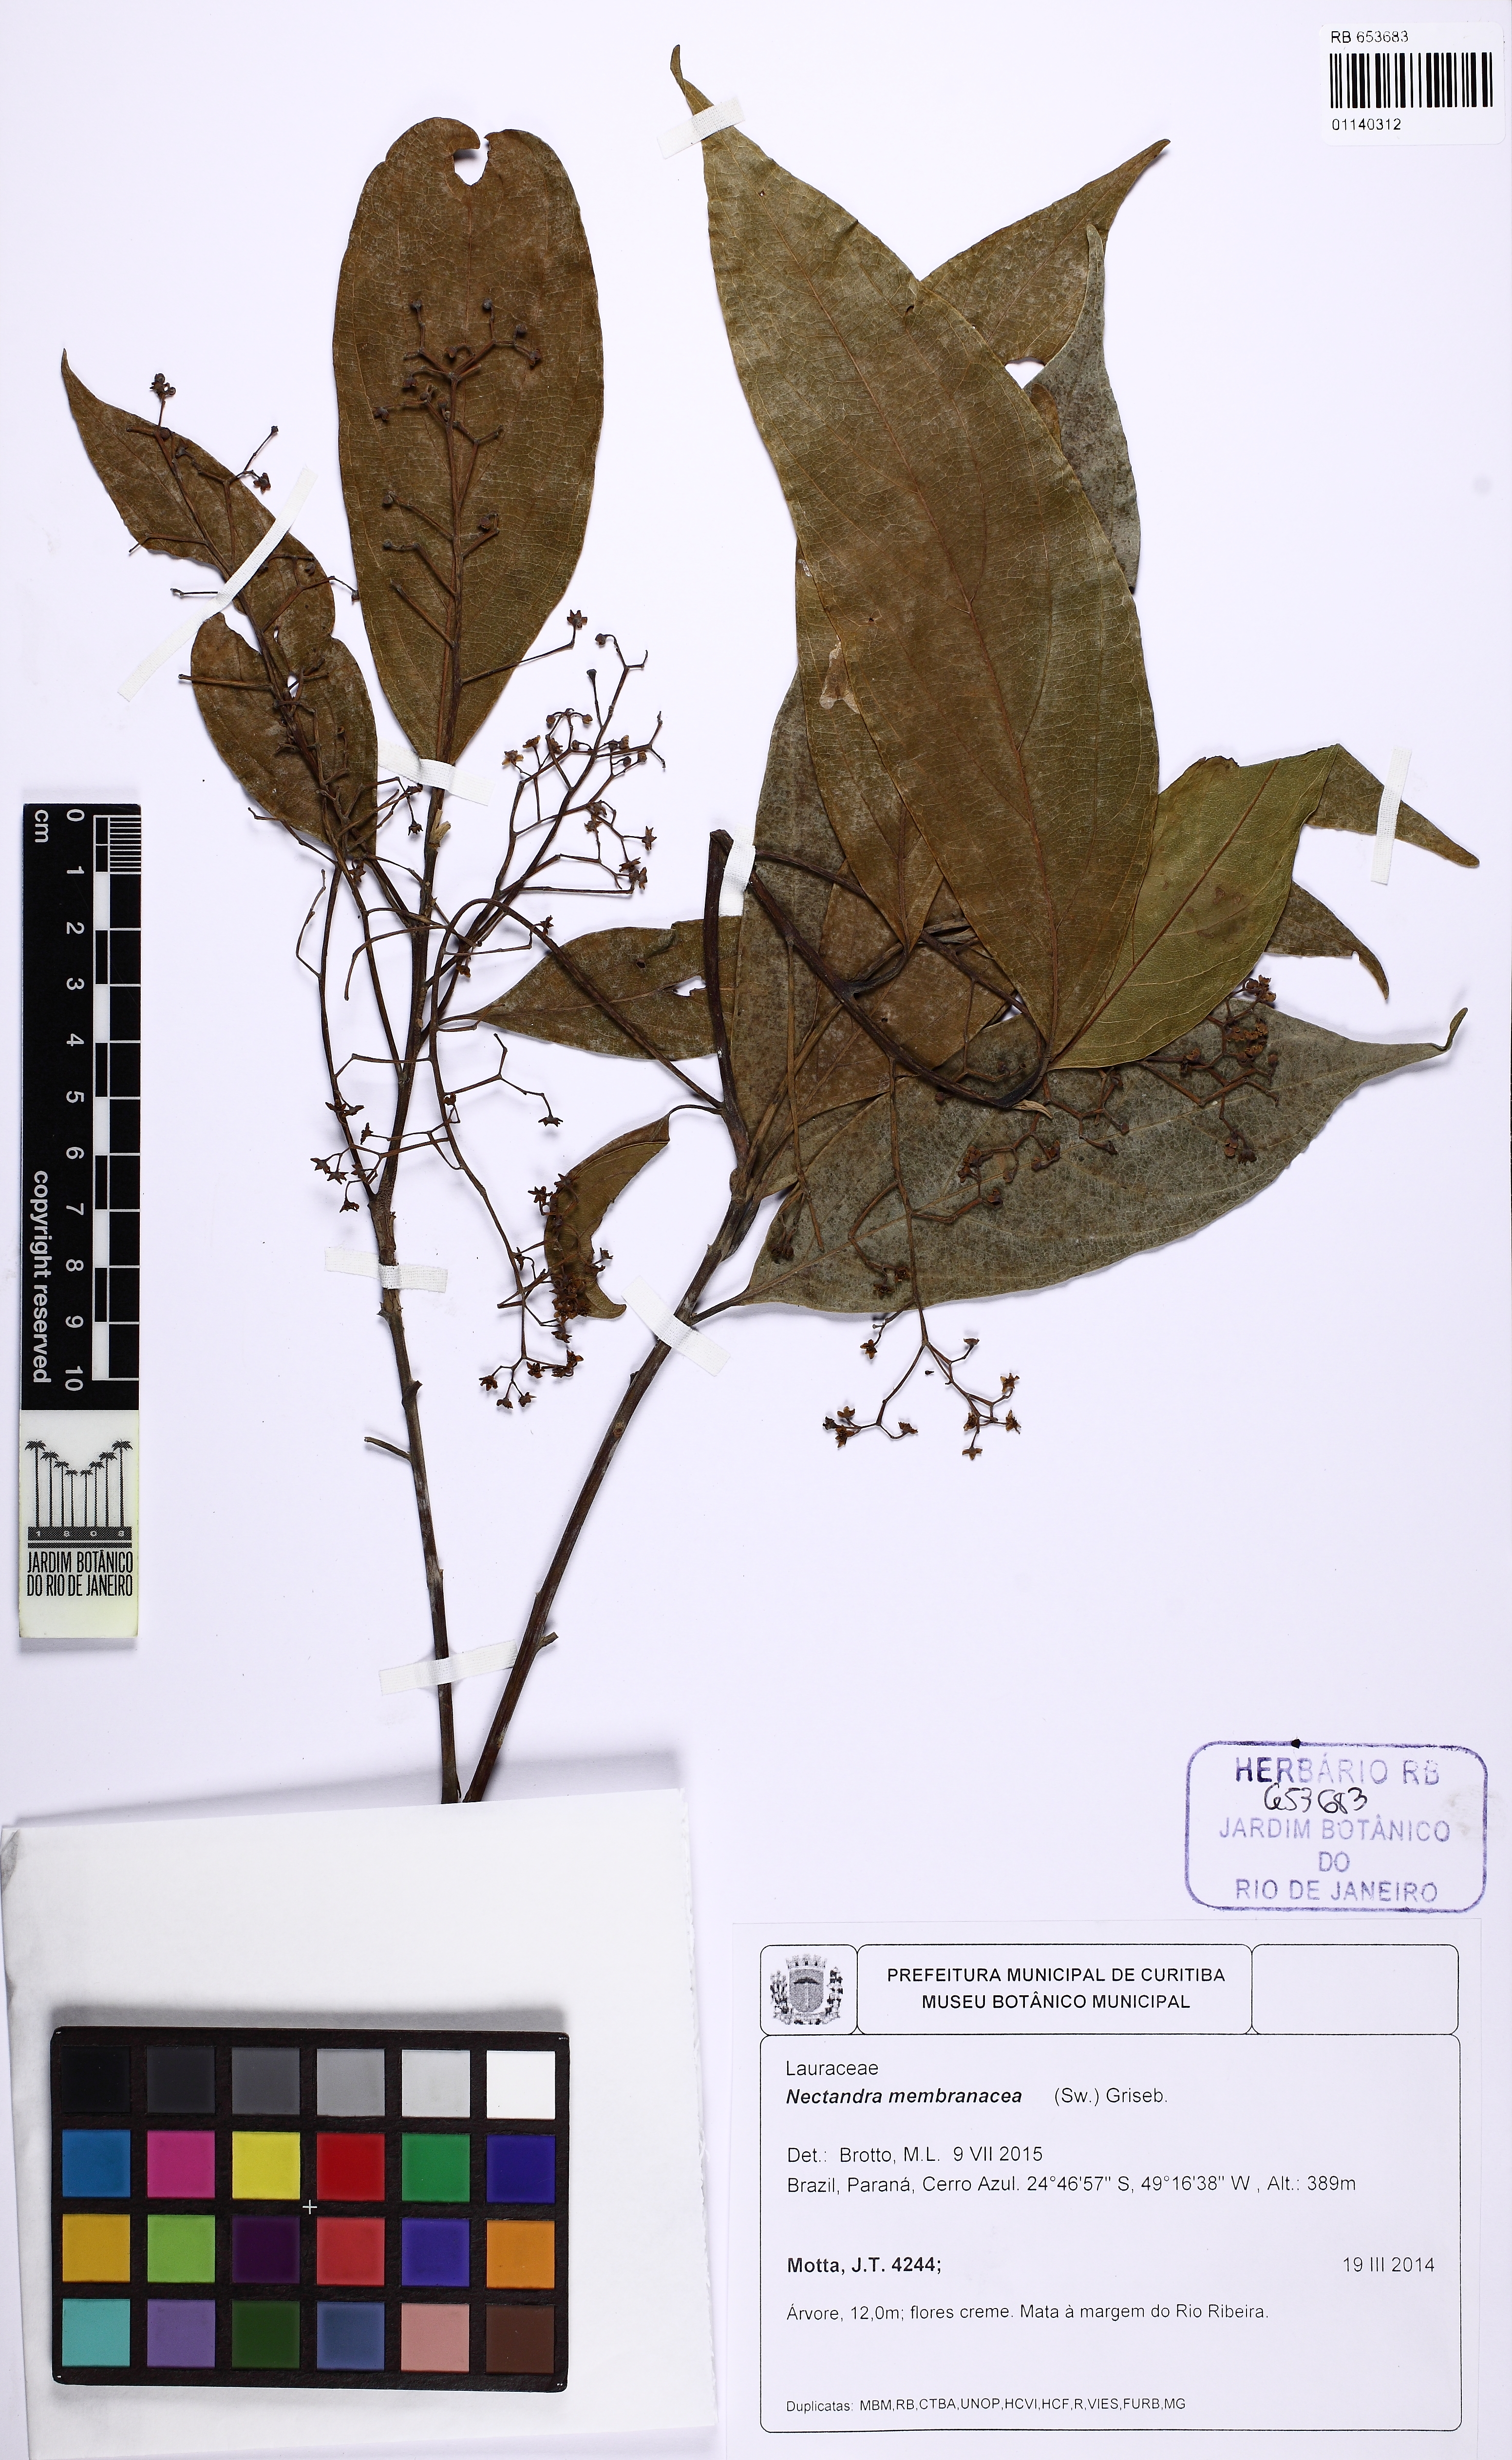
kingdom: Plantae
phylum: Tracheophyta
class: Magnoliopsida
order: Laurales
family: Lauraceae
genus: Nectandra
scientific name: Nectandra membranacea
